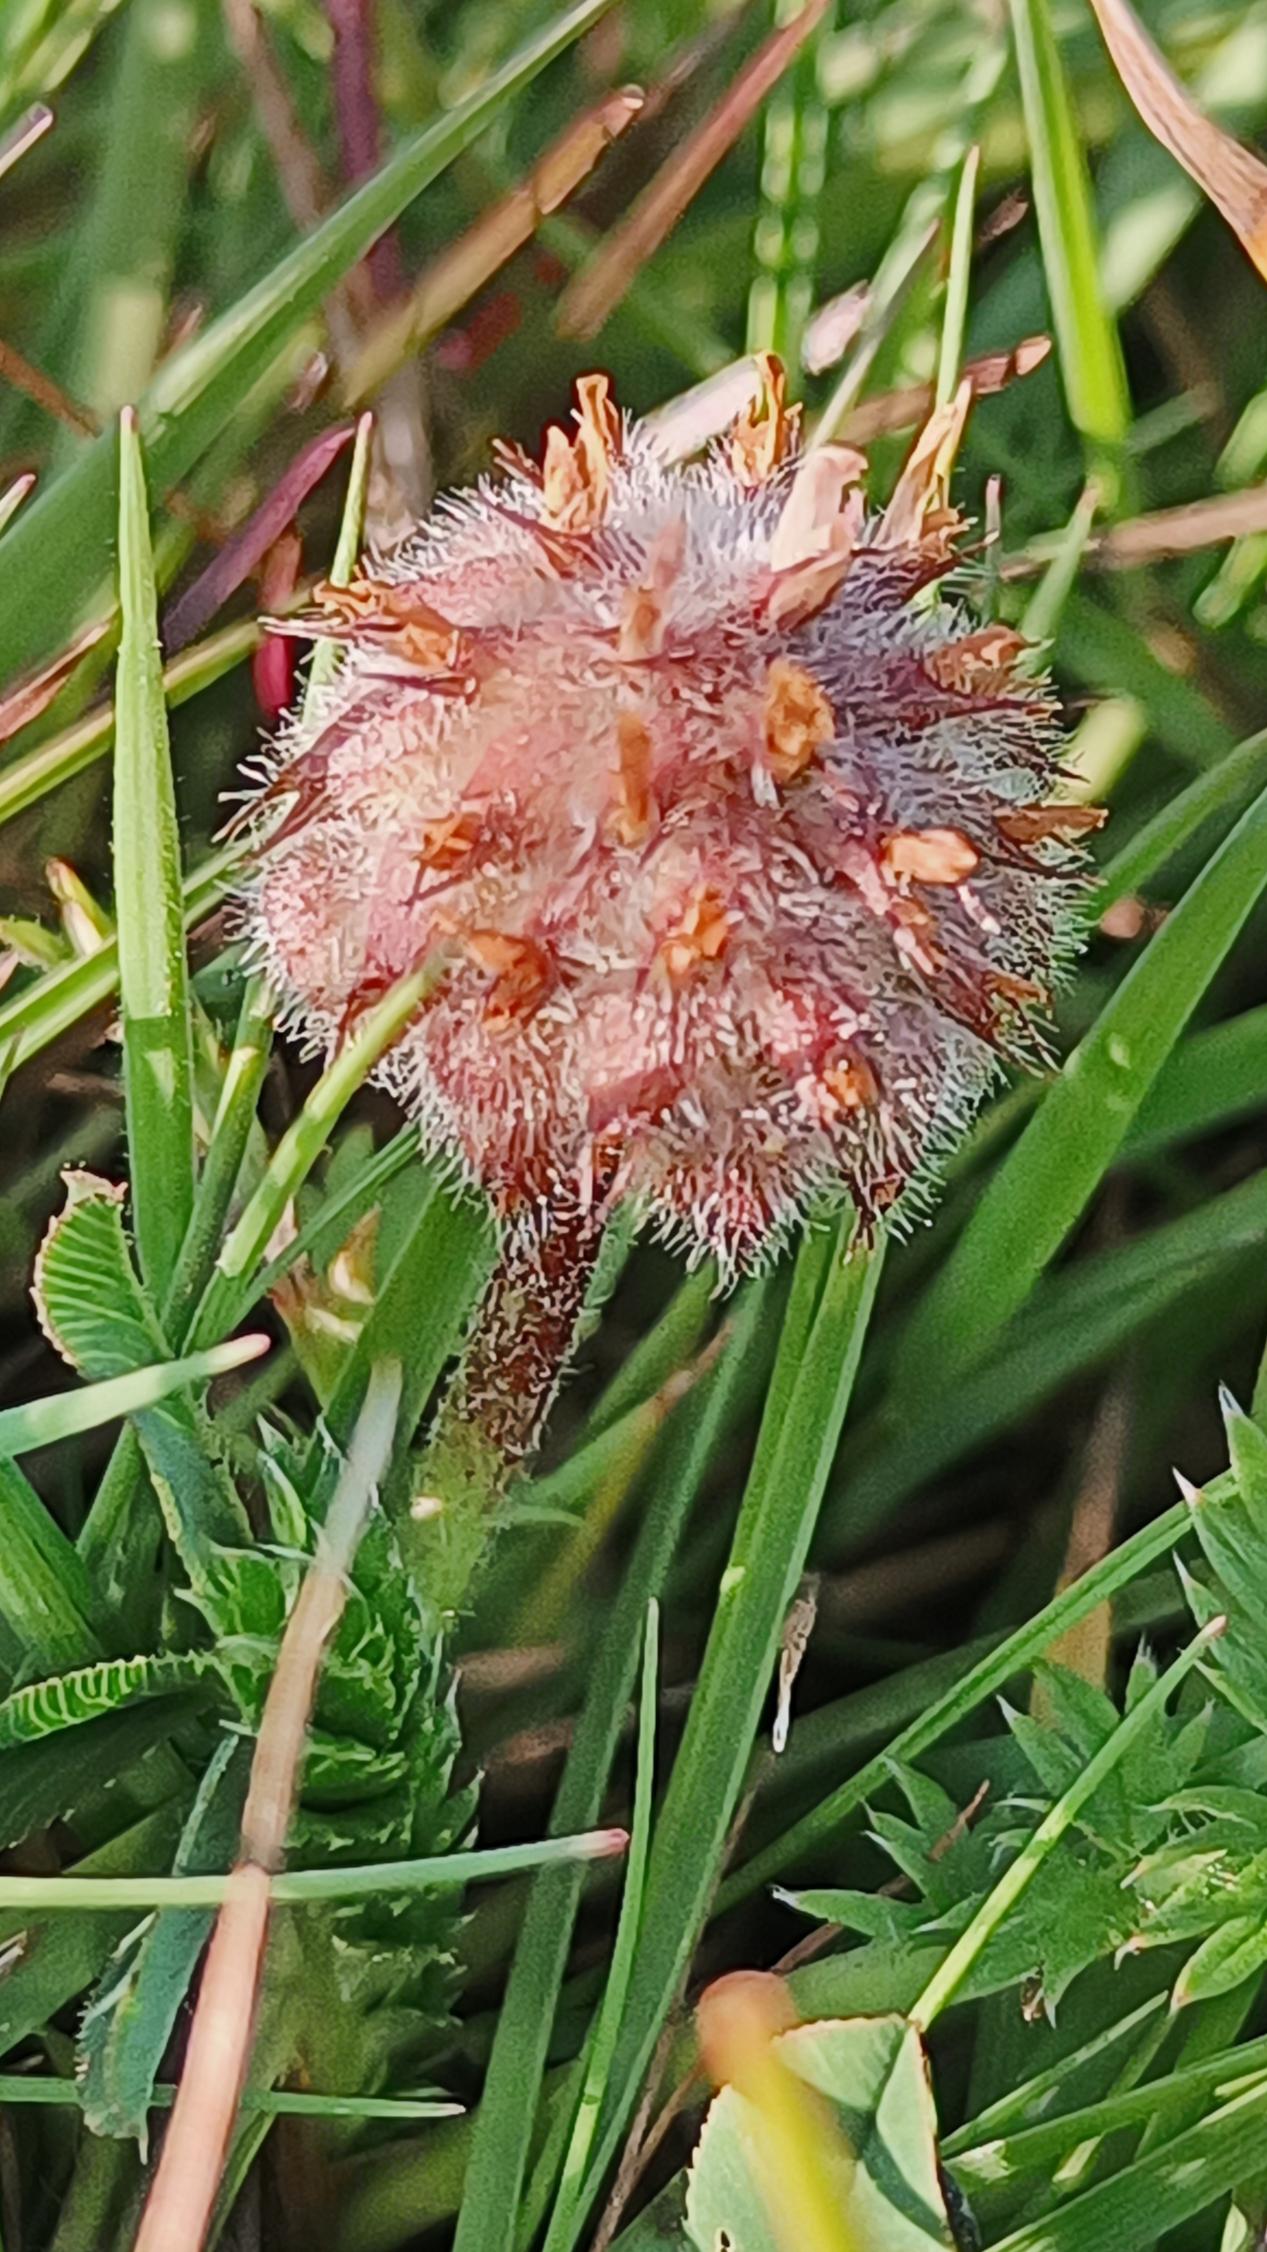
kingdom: Plantae
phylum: Tracheophyta
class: Magnoliopsida
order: Fabales
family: Fabaceae
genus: Trifolium
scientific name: Trifolium fragiferum
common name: Jordbær-kløver
